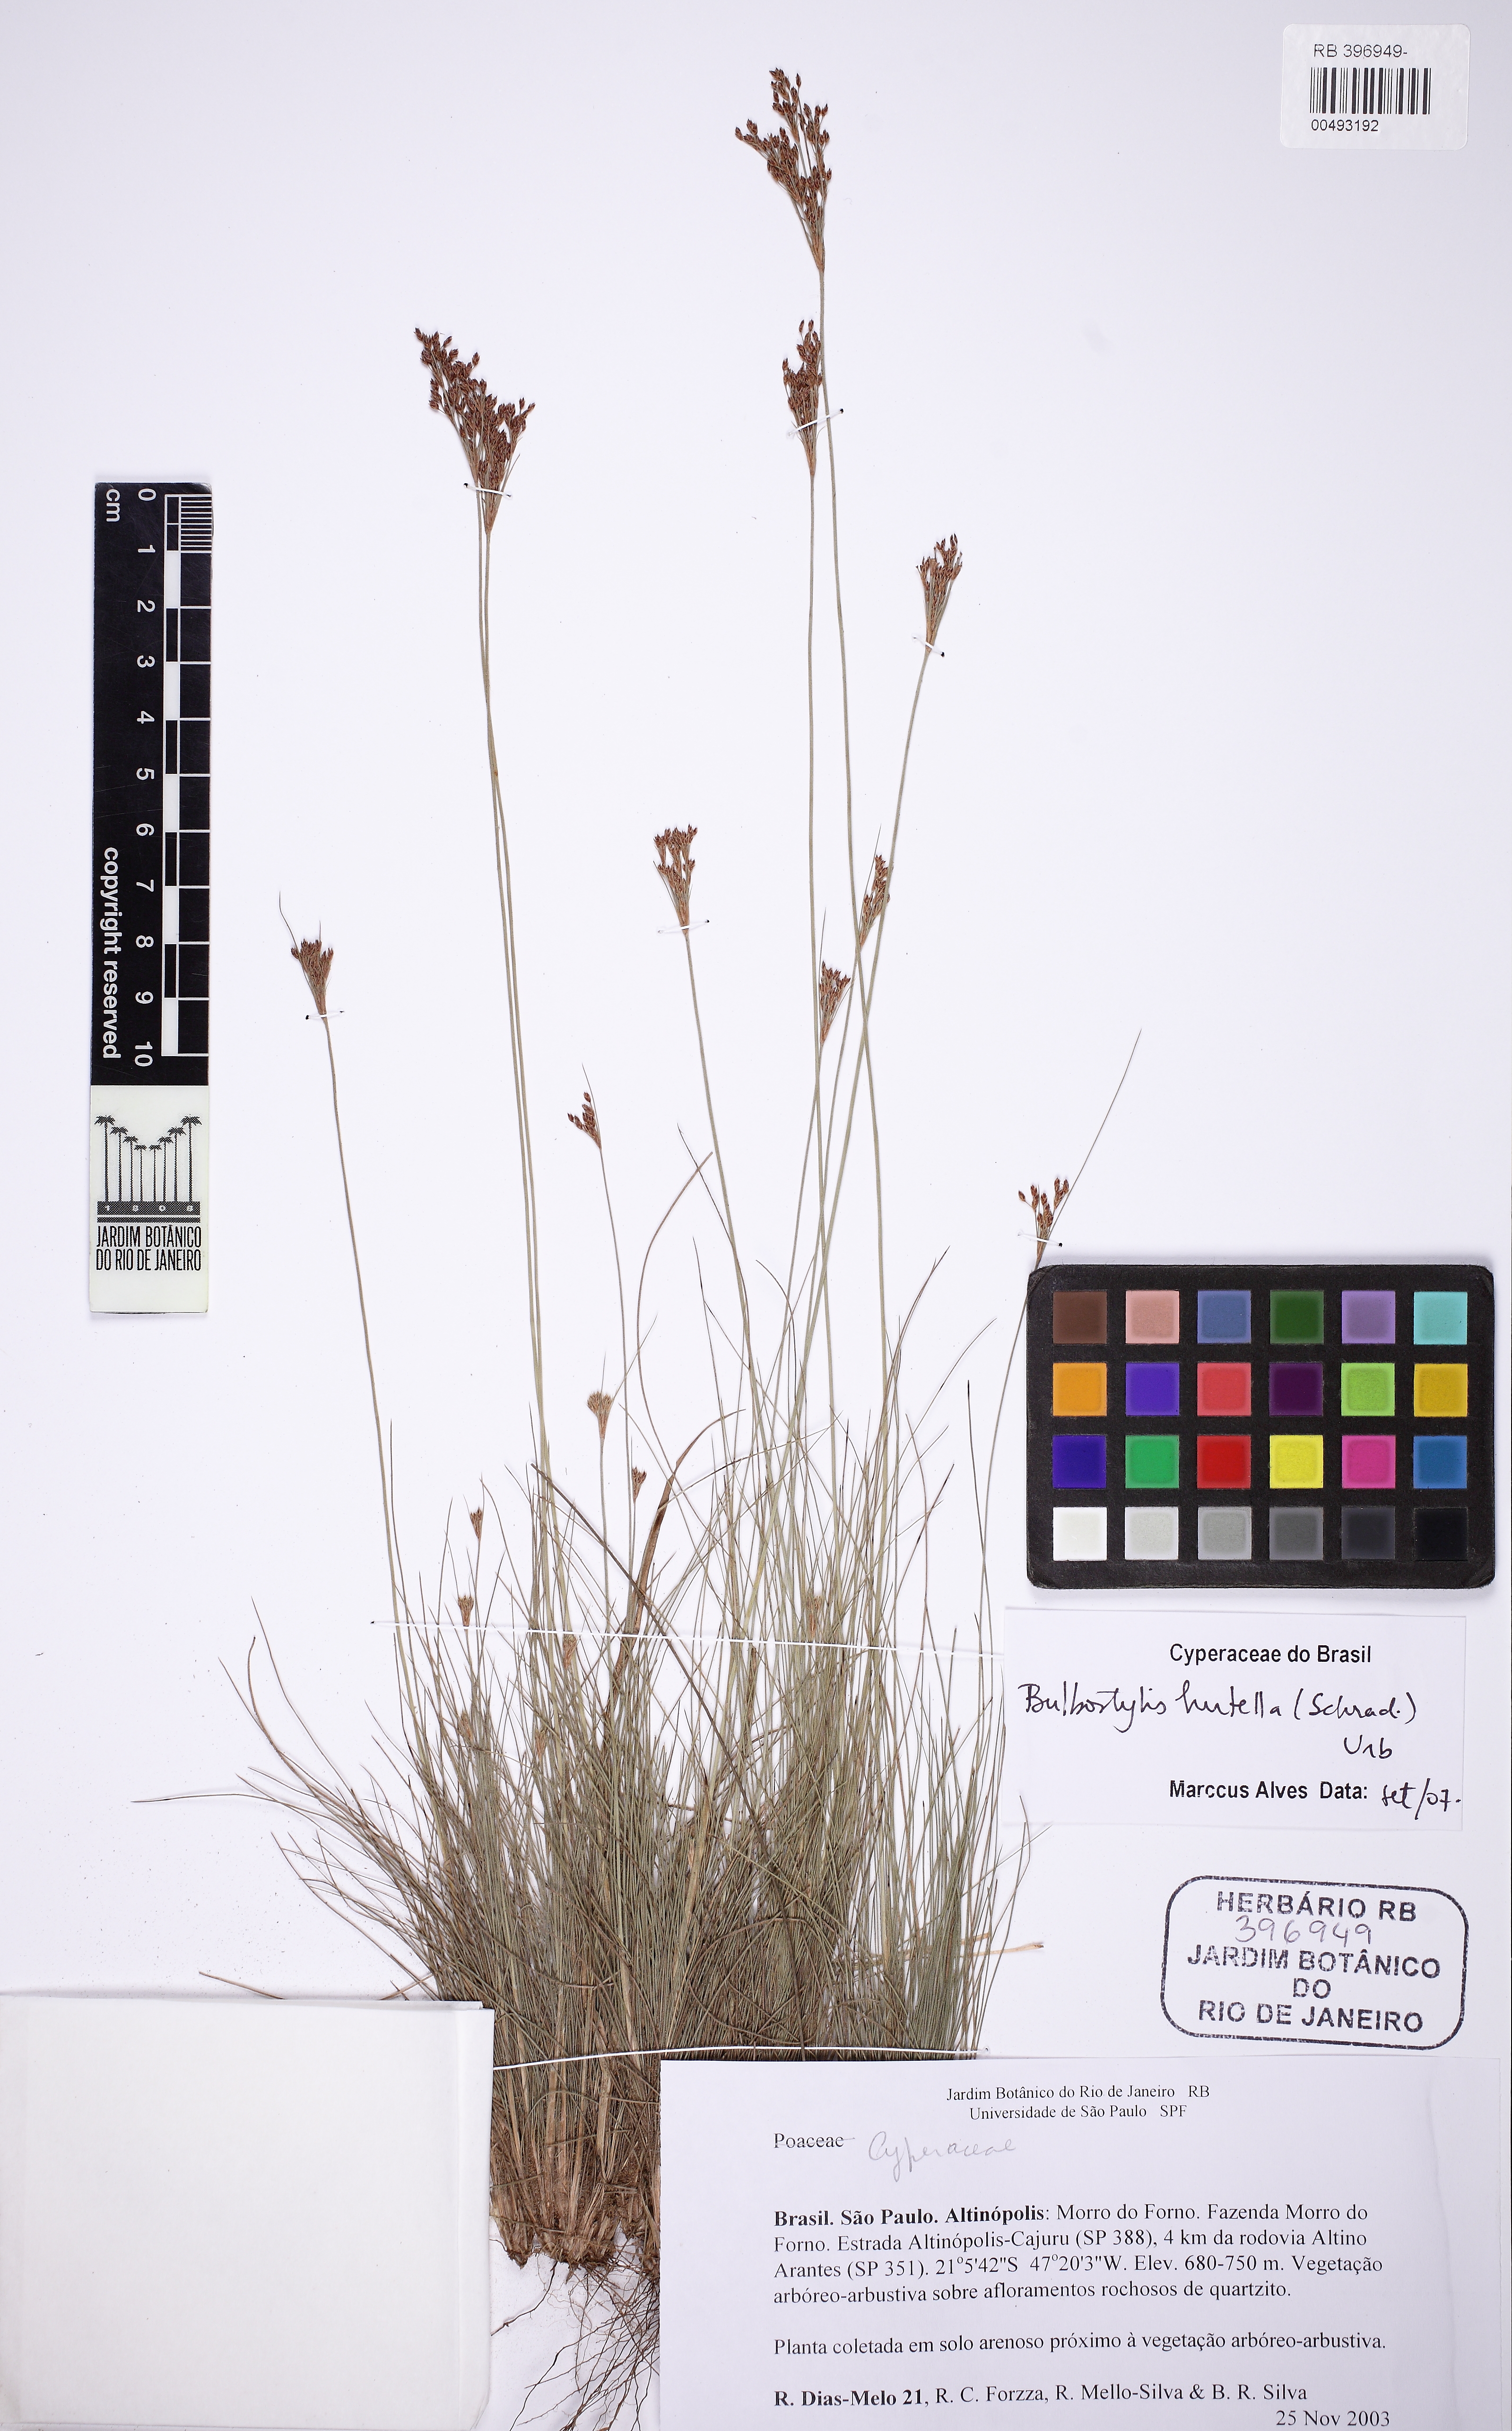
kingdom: Plantae
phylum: Tracheophyta
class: Liliopsida
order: Poales
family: Cyperaceae
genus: Bulbostylis
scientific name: Bulbostylis juncoides
